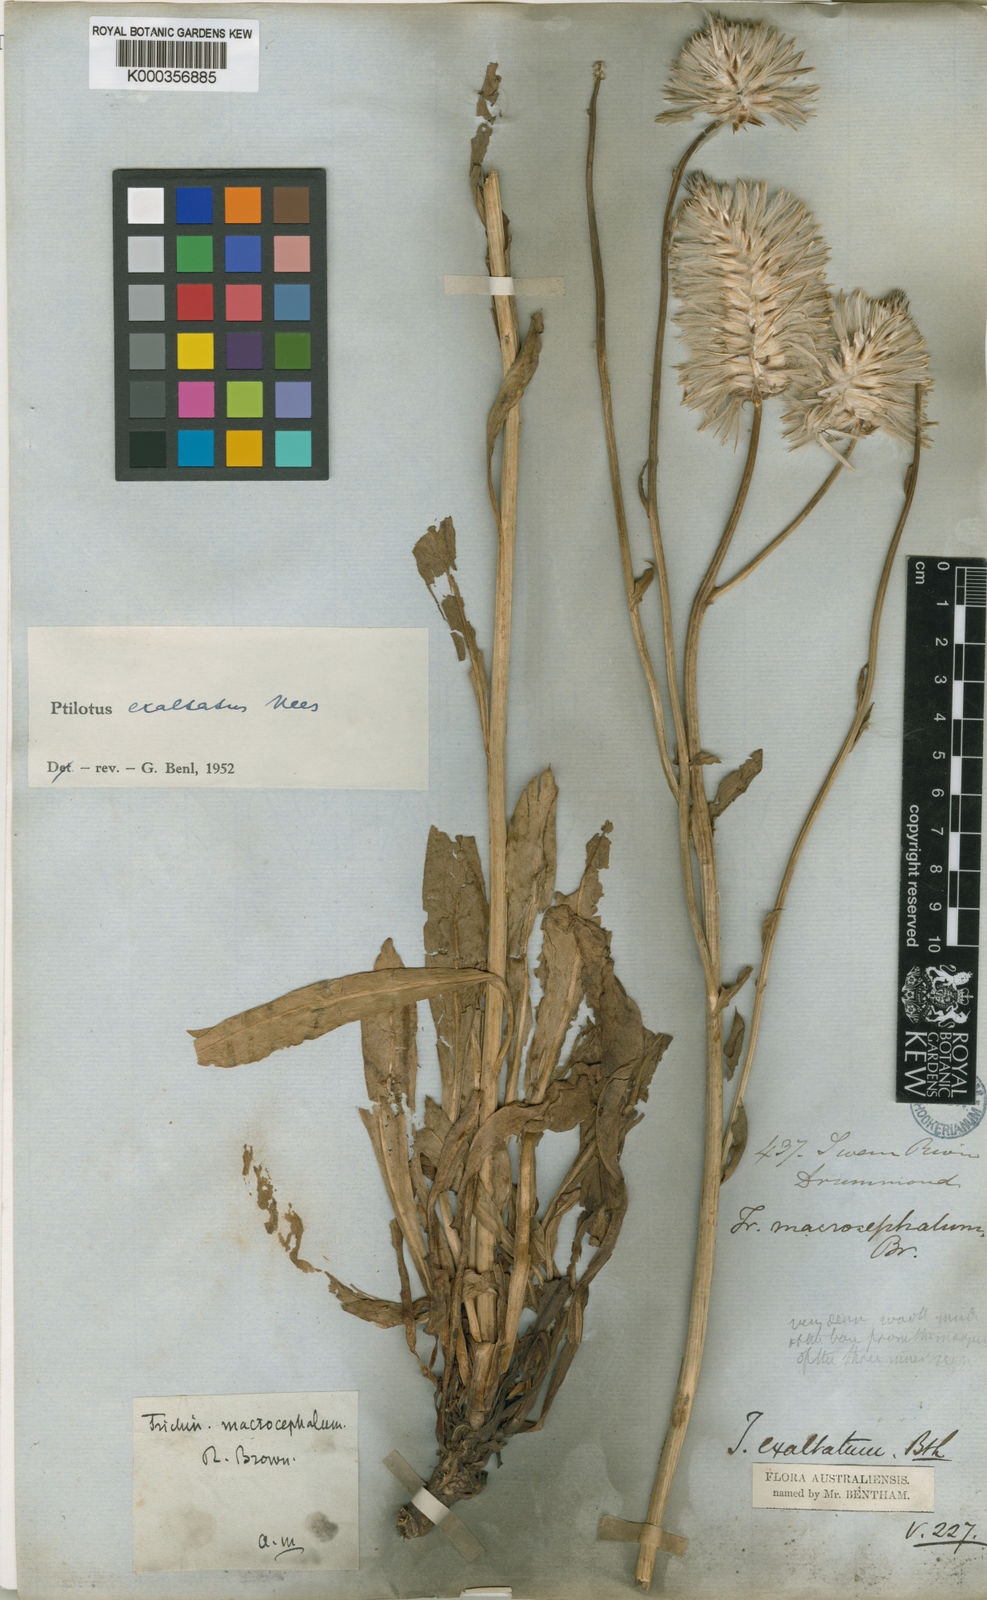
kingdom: Plantae
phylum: Tracheophyta
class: Magnoliopsida
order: Caryophyllales
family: Amaranthaceae
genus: Ptilotus
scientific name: Ptilotus exaltatus
